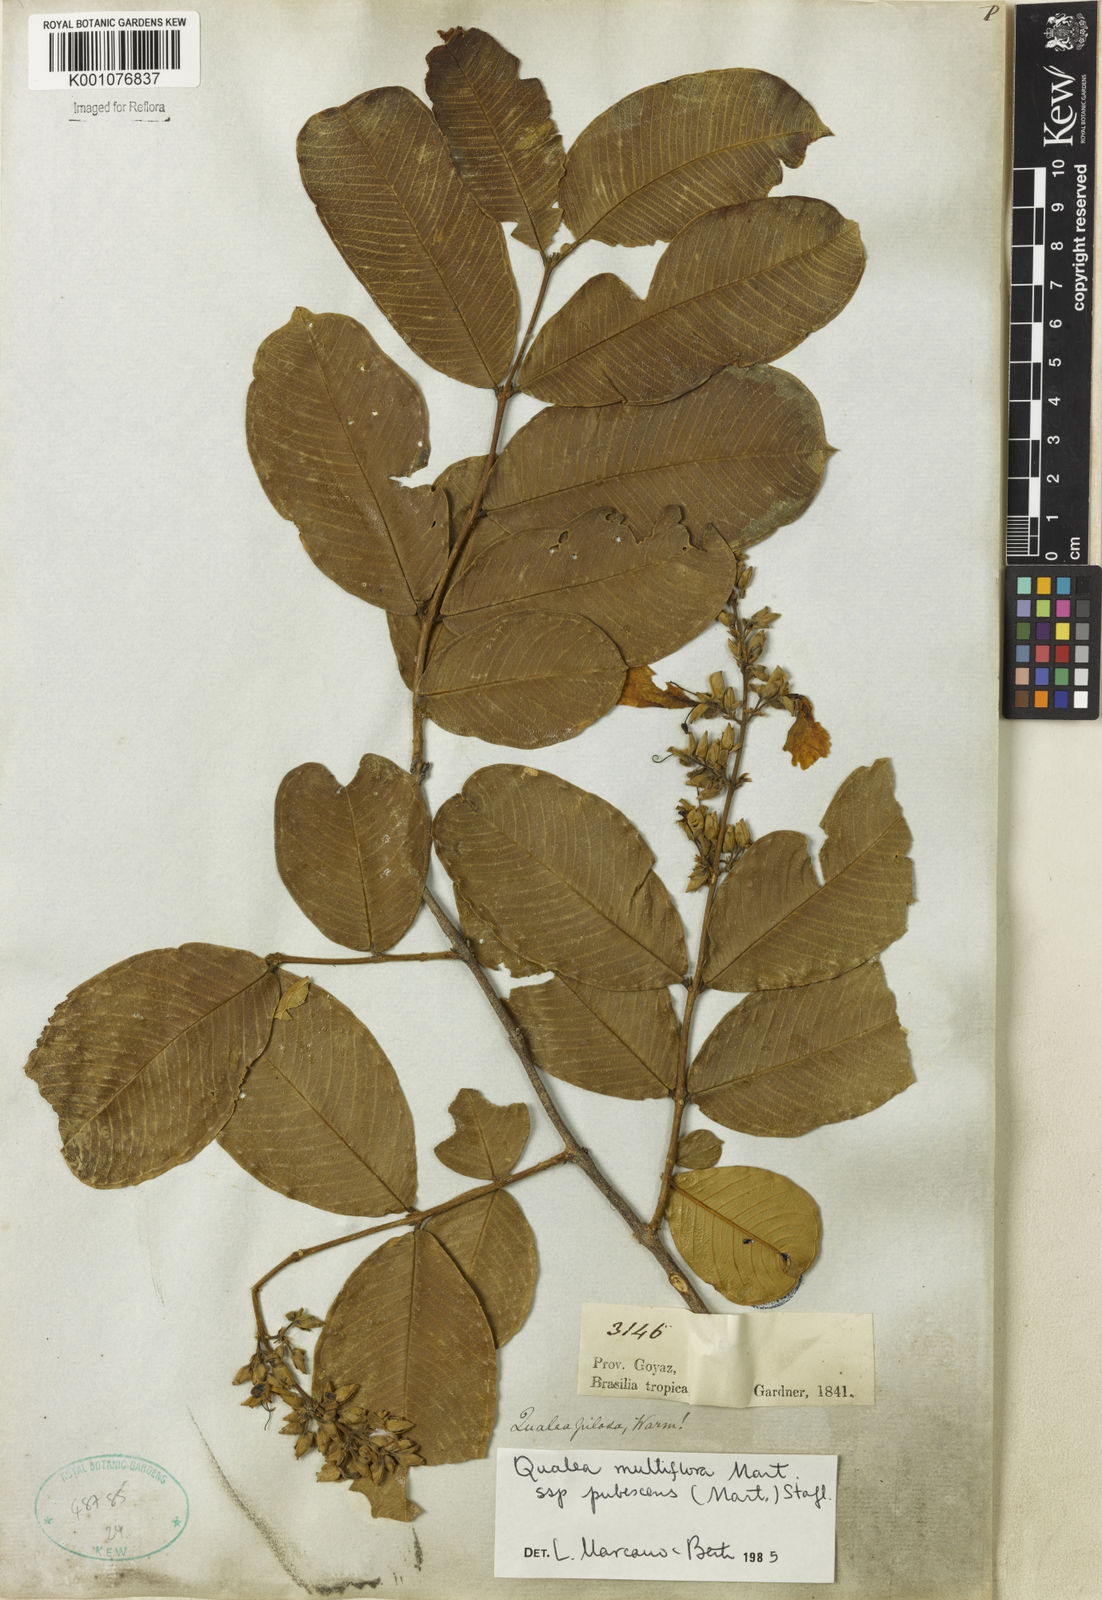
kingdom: Plantae
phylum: Tracheophyta
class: Magnoliopsida
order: Myrtales
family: Vochysiaceae
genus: Qualea
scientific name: Qualea multiflora
